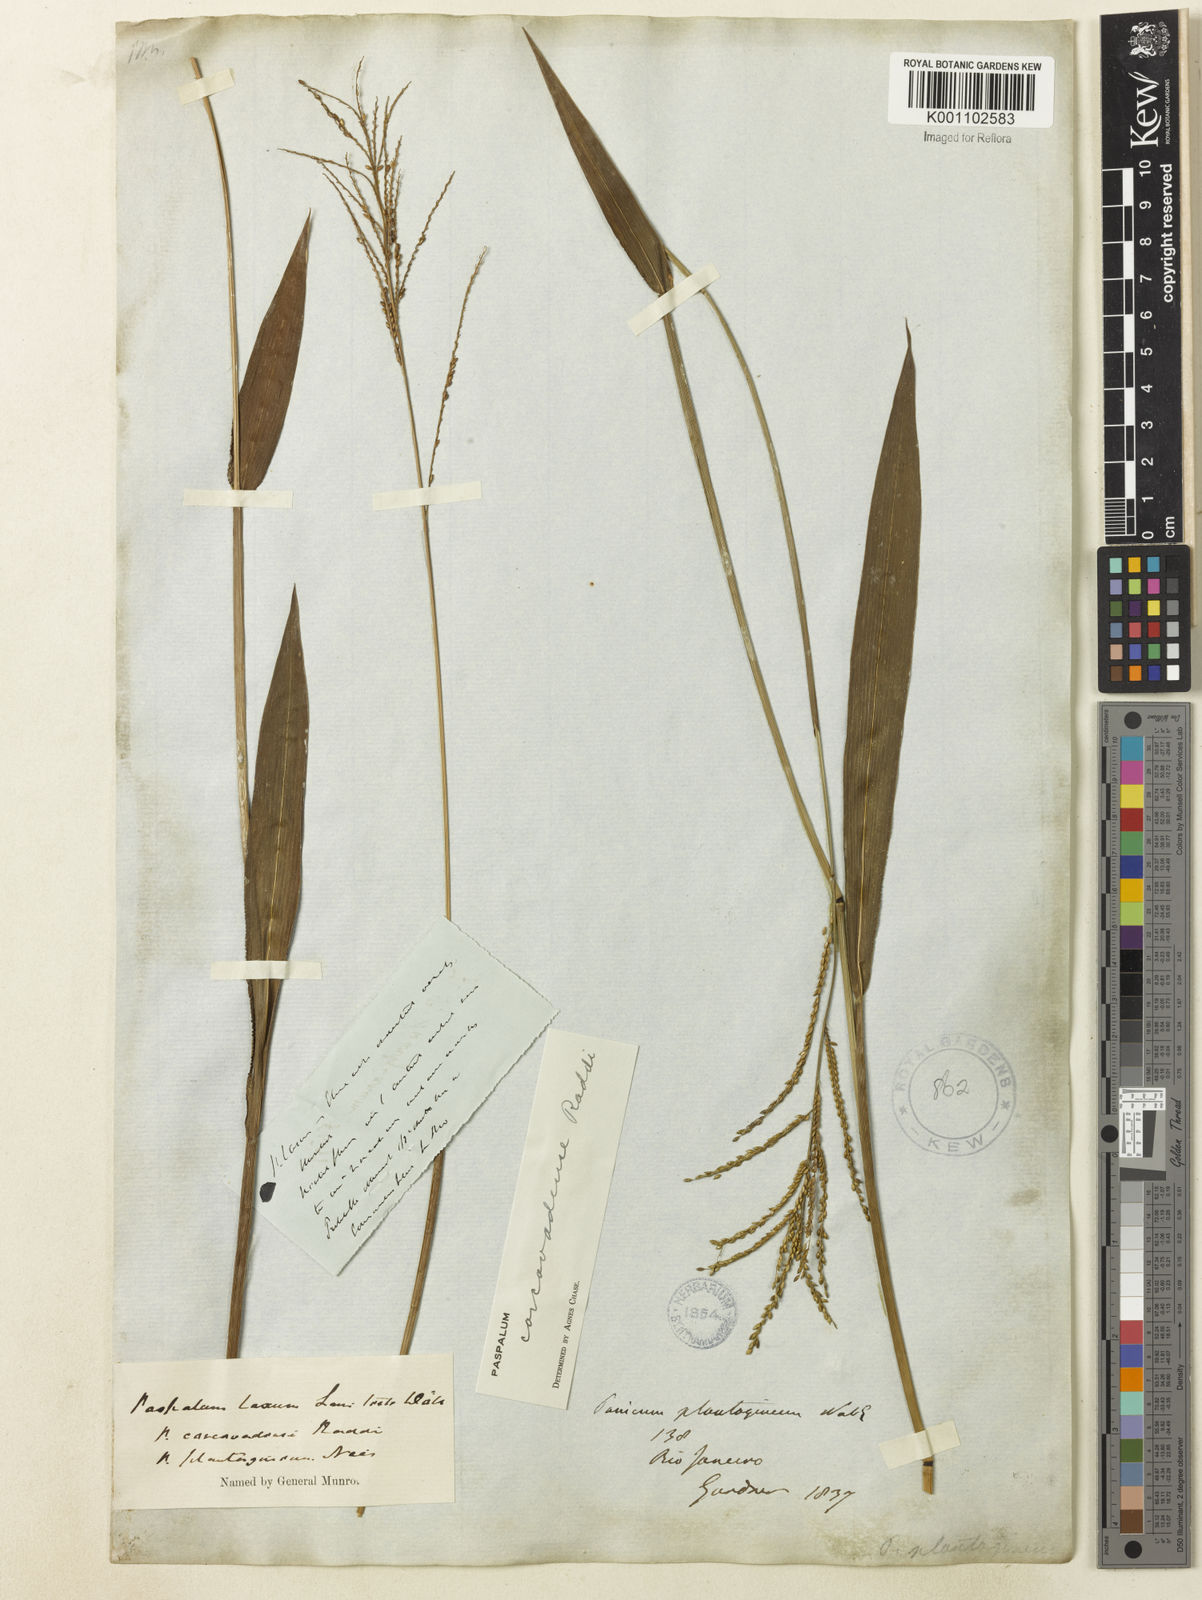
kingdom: Plantae
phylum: Tracheophyta
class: Liliopsida
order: Poales
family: Poaceae
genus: Paspalum
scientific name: Paspalum corcovadense
